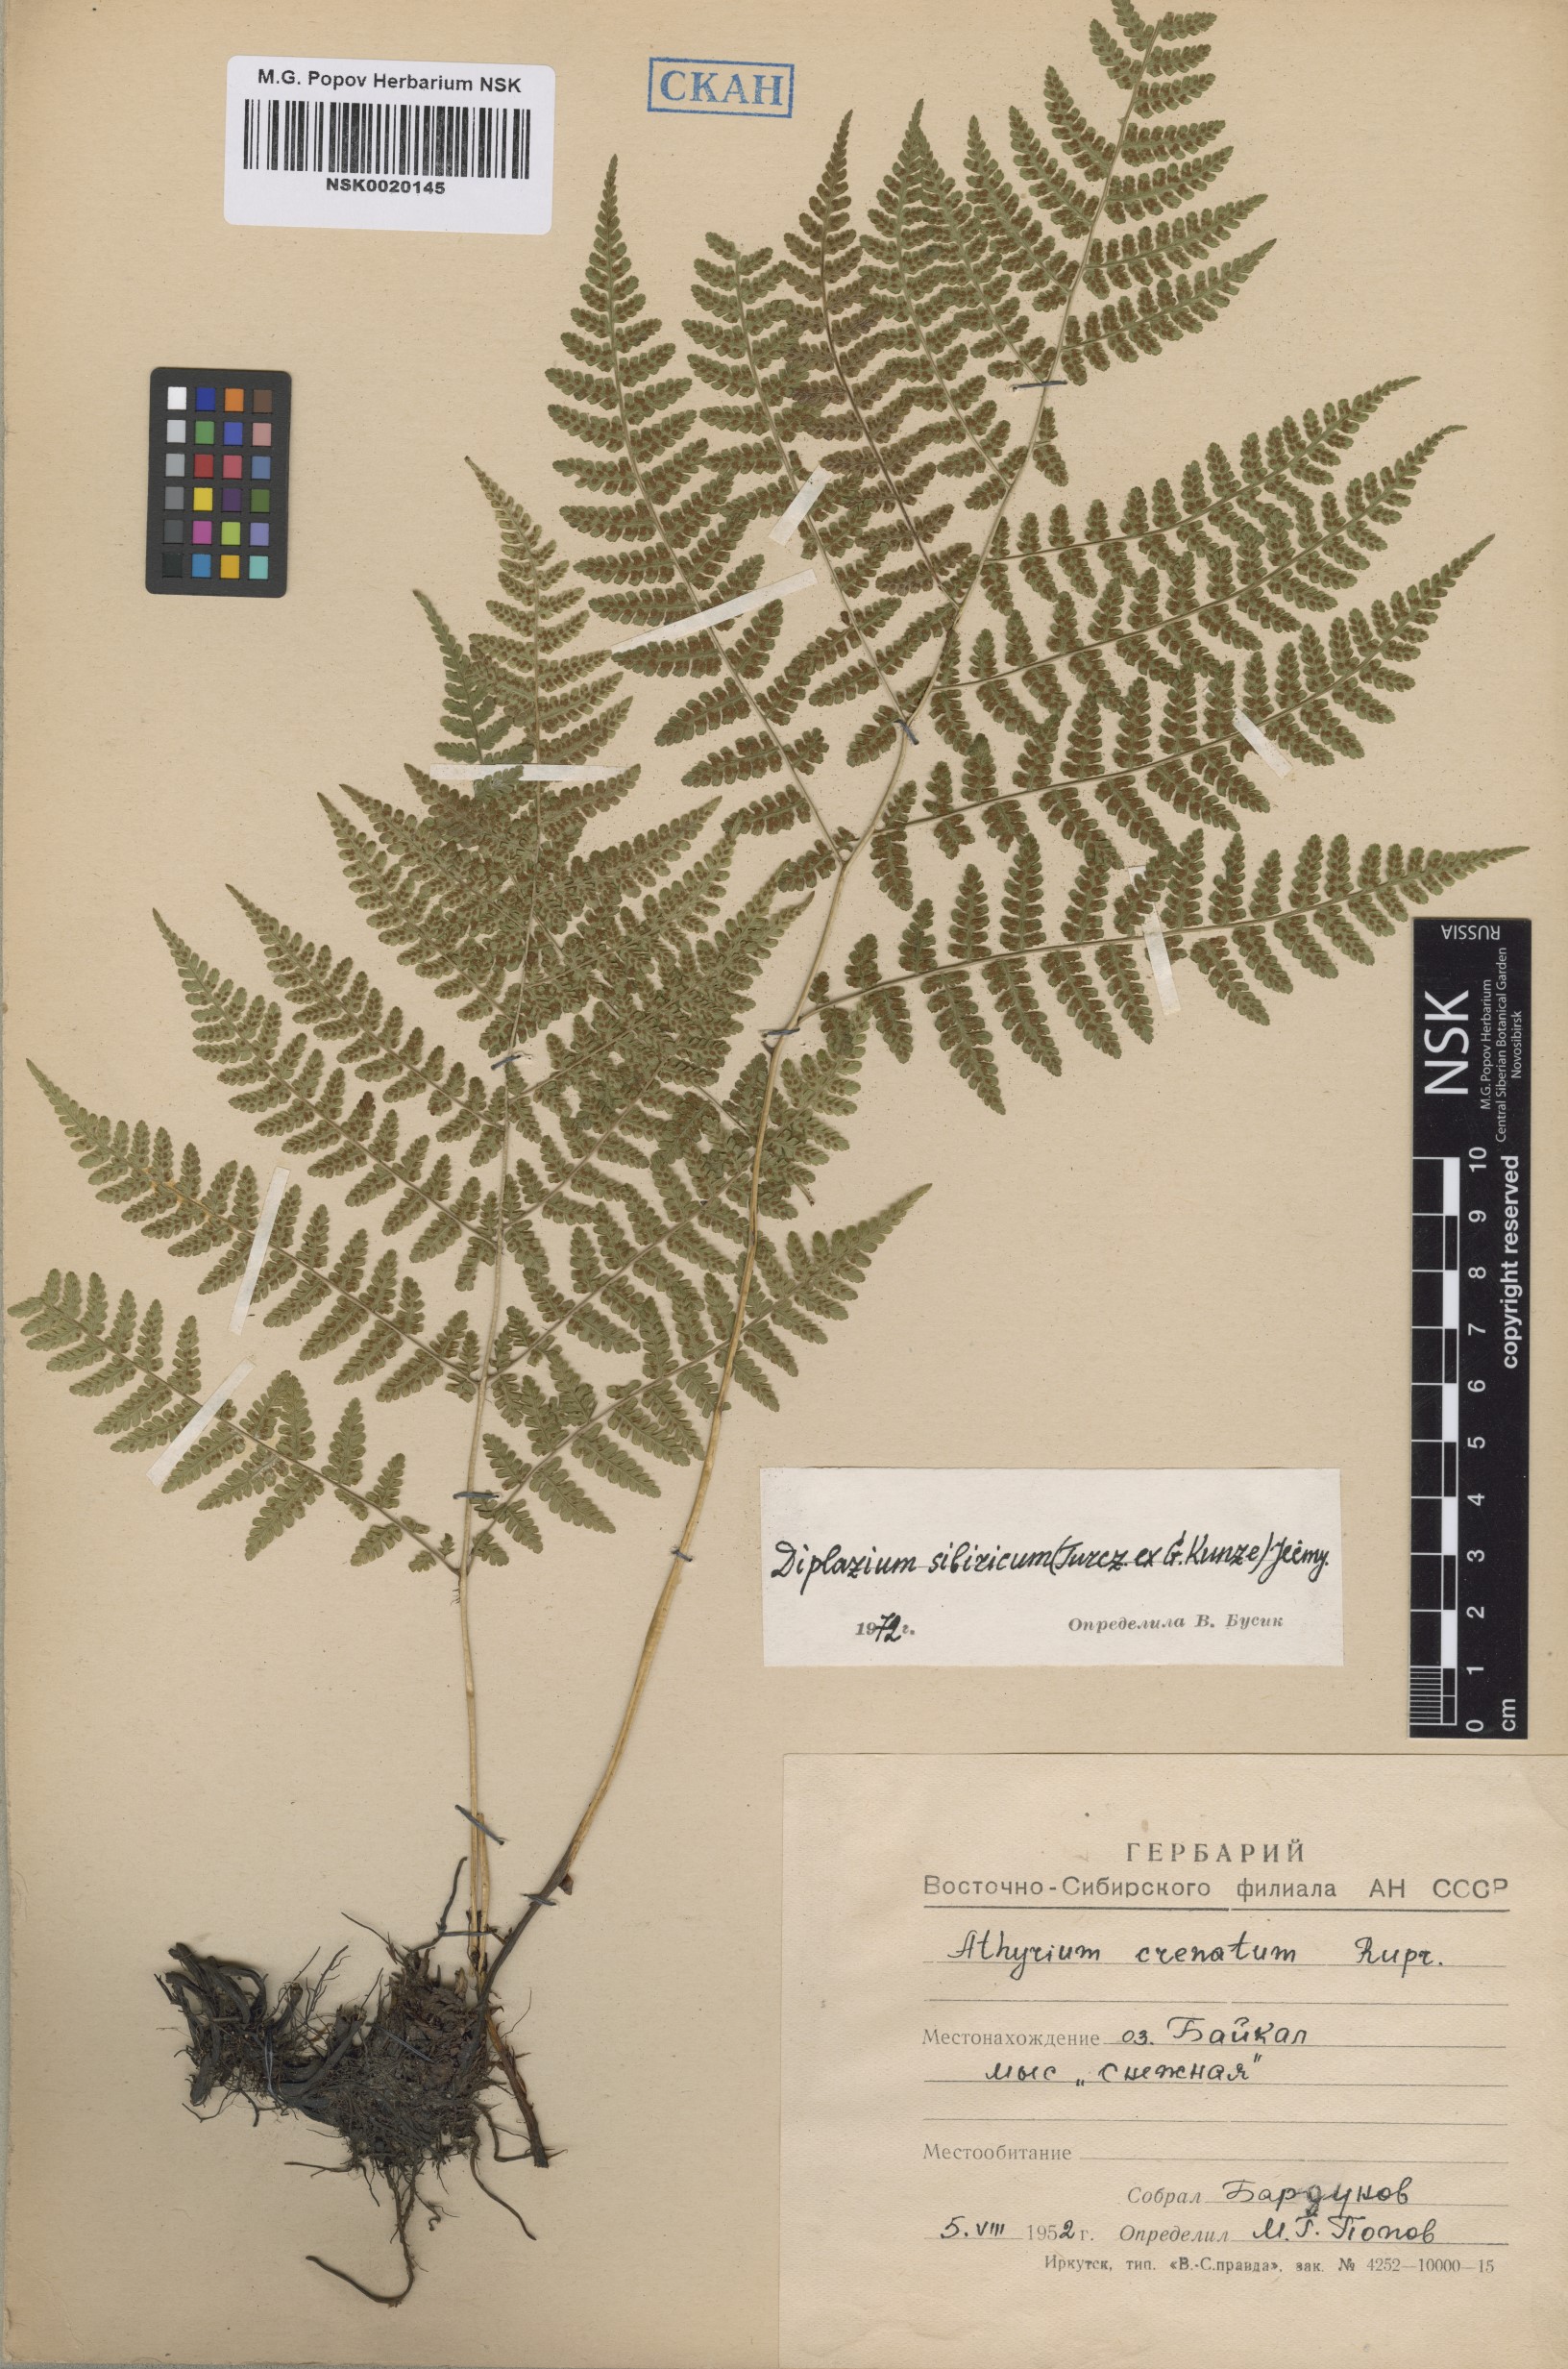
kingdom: Plantae
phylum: Tracheophyta
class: Polypodiopsida
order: Polypodiales
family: Athyriaceae
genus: Diplazium
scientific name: Diplazium sibiricum
